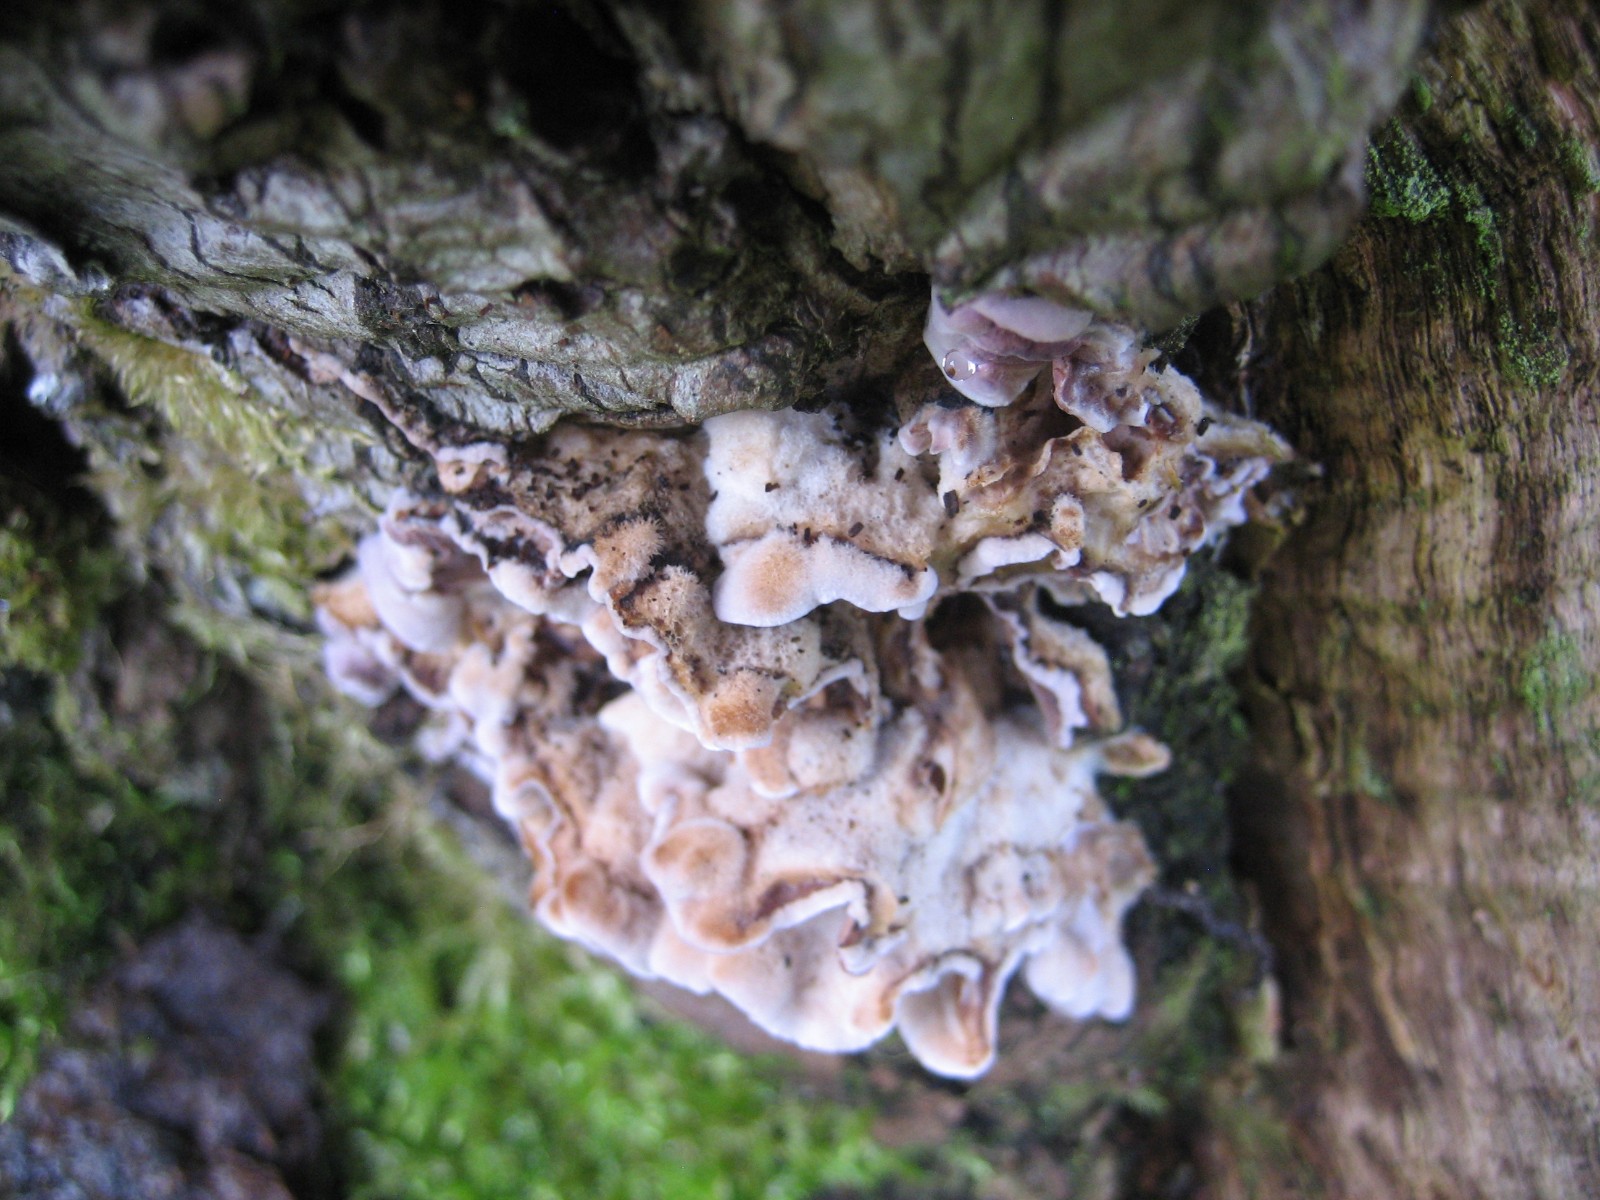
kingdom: Fungi
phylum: Basidiomycota
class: Agaricomycetes
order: Russulales
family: Stereaceae
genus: Stereum
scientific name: Stereum hirsutum
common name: håret lædersvamp
